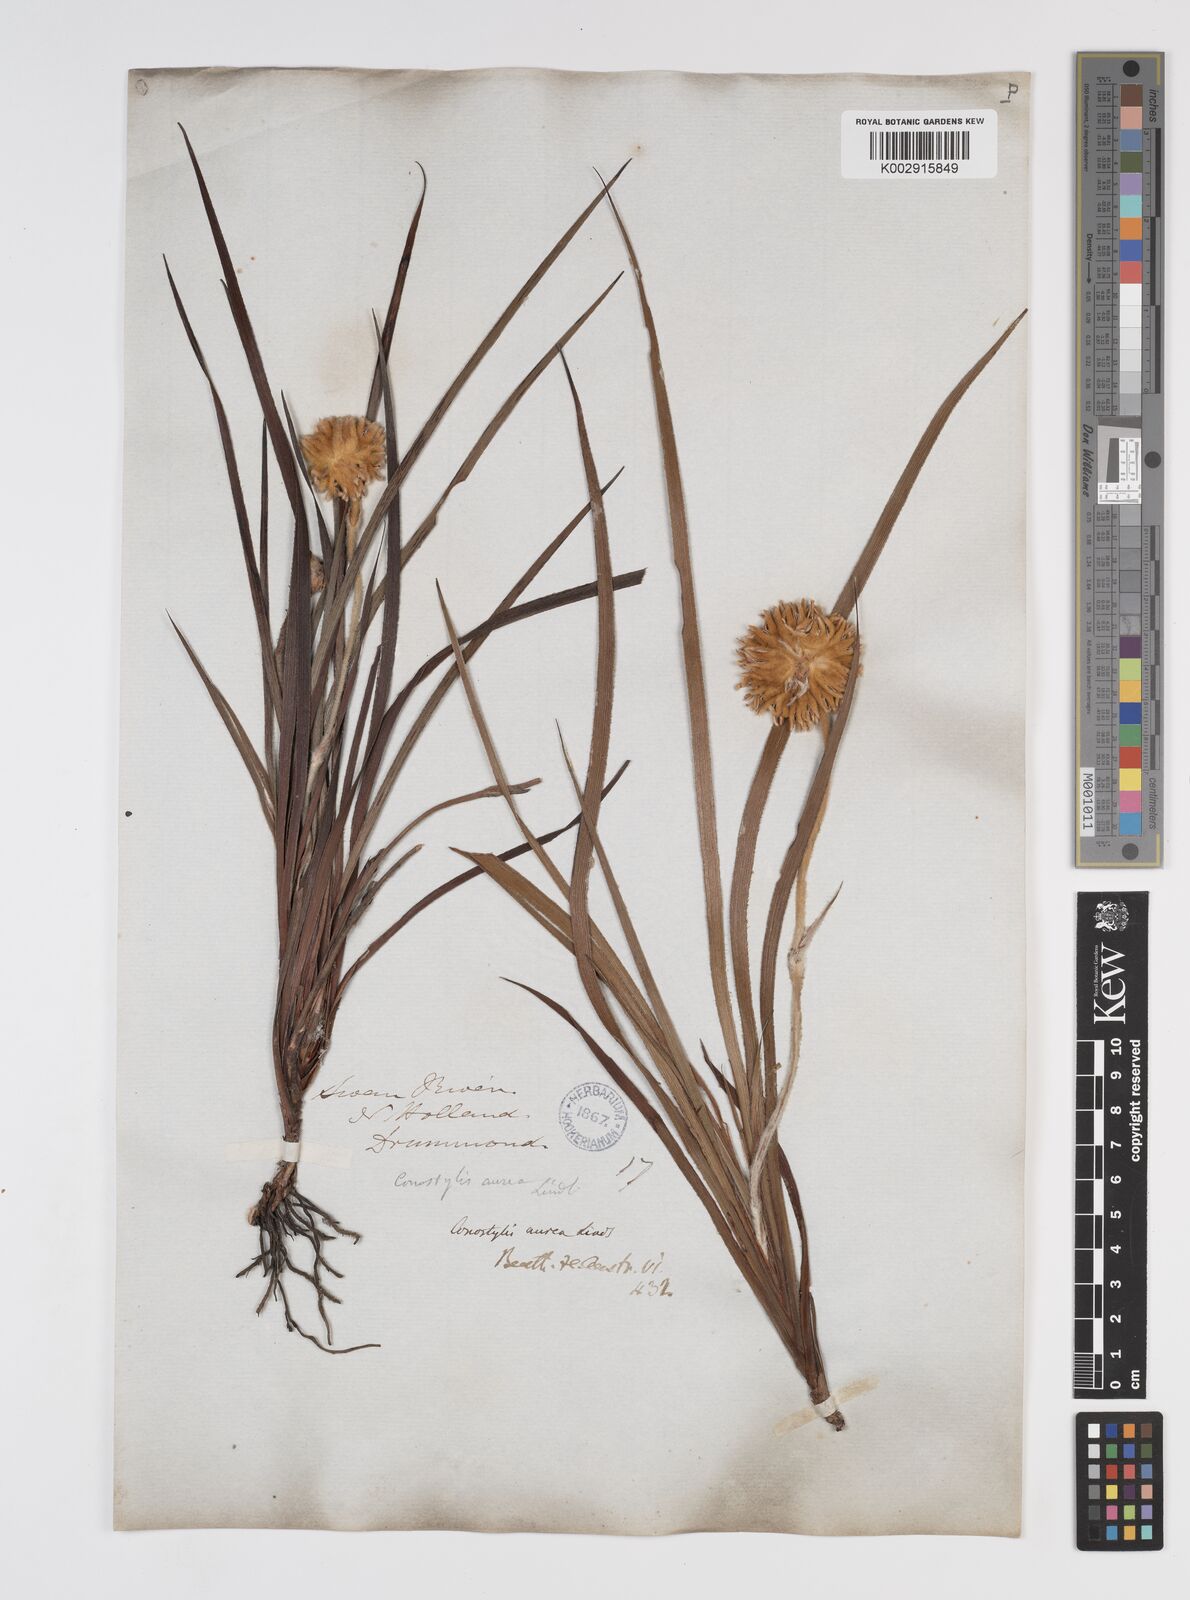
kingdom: Plantae
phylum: Tracheophyta
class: Liliopsida
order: Commelinales
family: Haemodoraceae
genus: Conostylis
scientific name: Conostylis aurea
